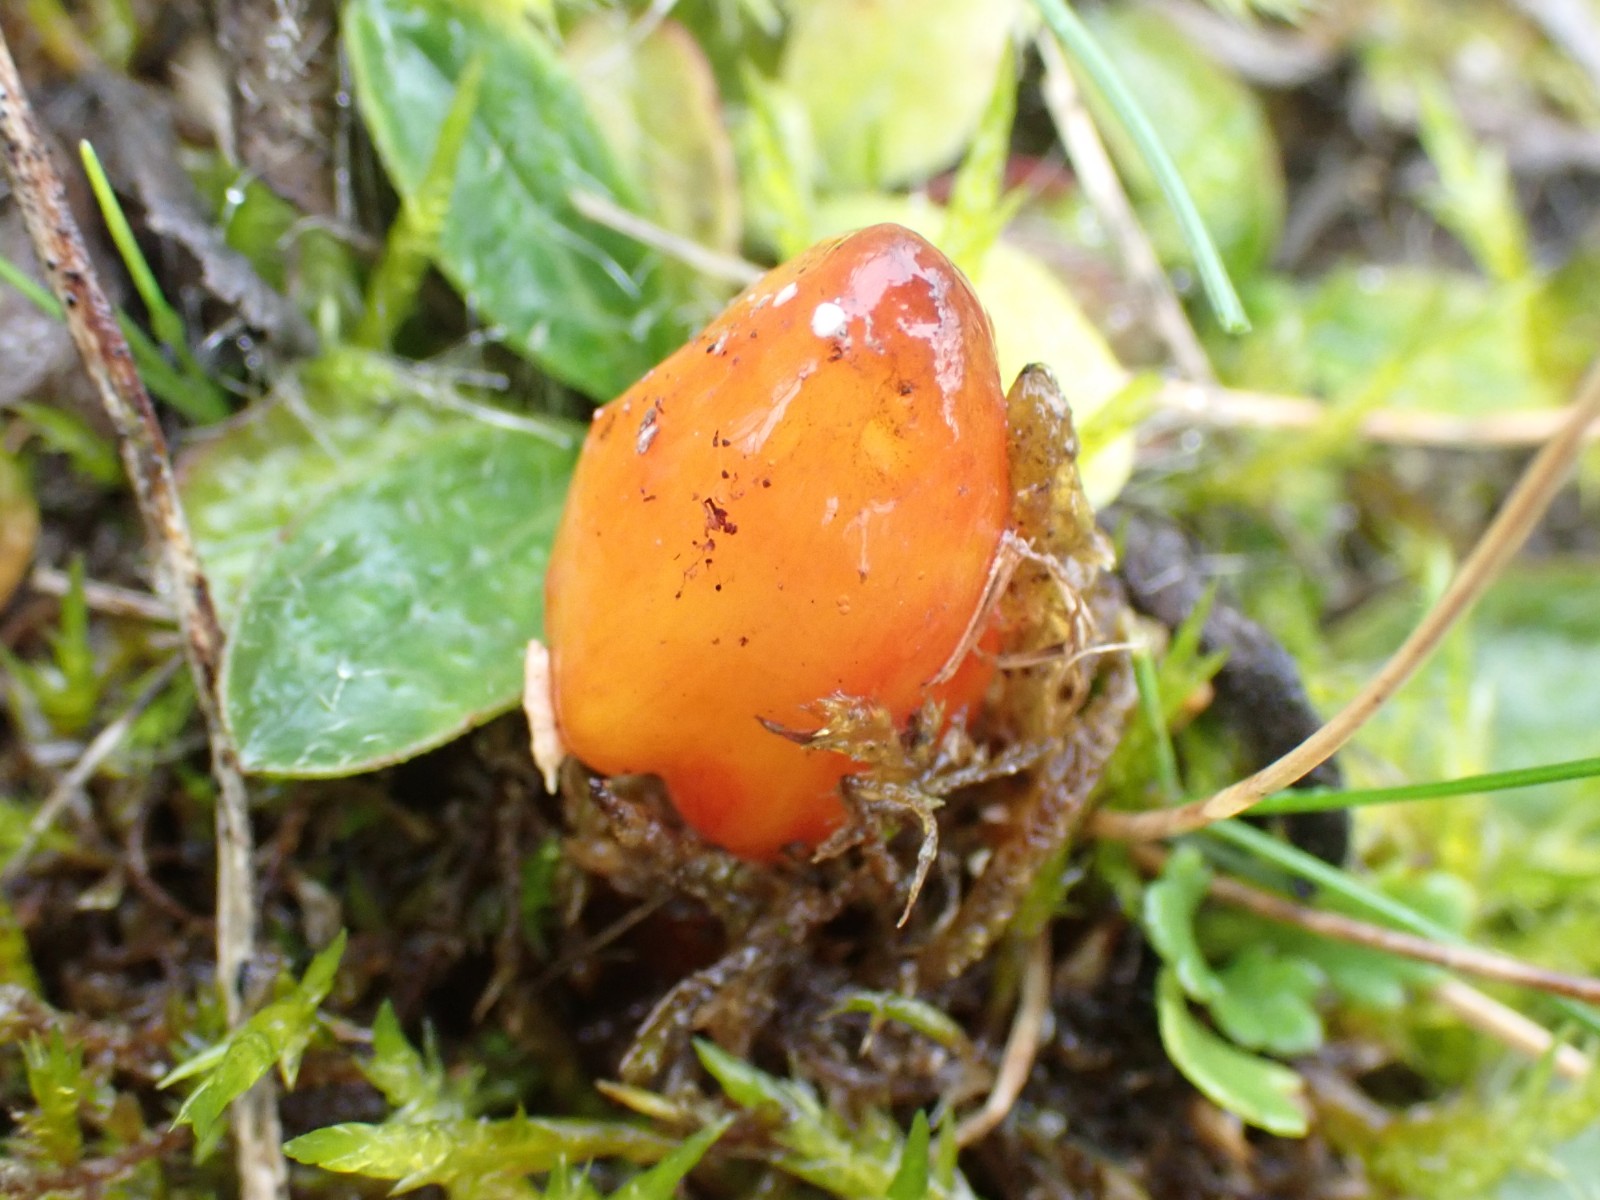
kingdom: Fungi
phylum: Basidiomycota
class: Agaricomycetes
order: Agaricales
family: Hygrophoraceae
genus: Hygrocybe
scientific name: Hygrocybe conica
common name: kegle-vokshat
